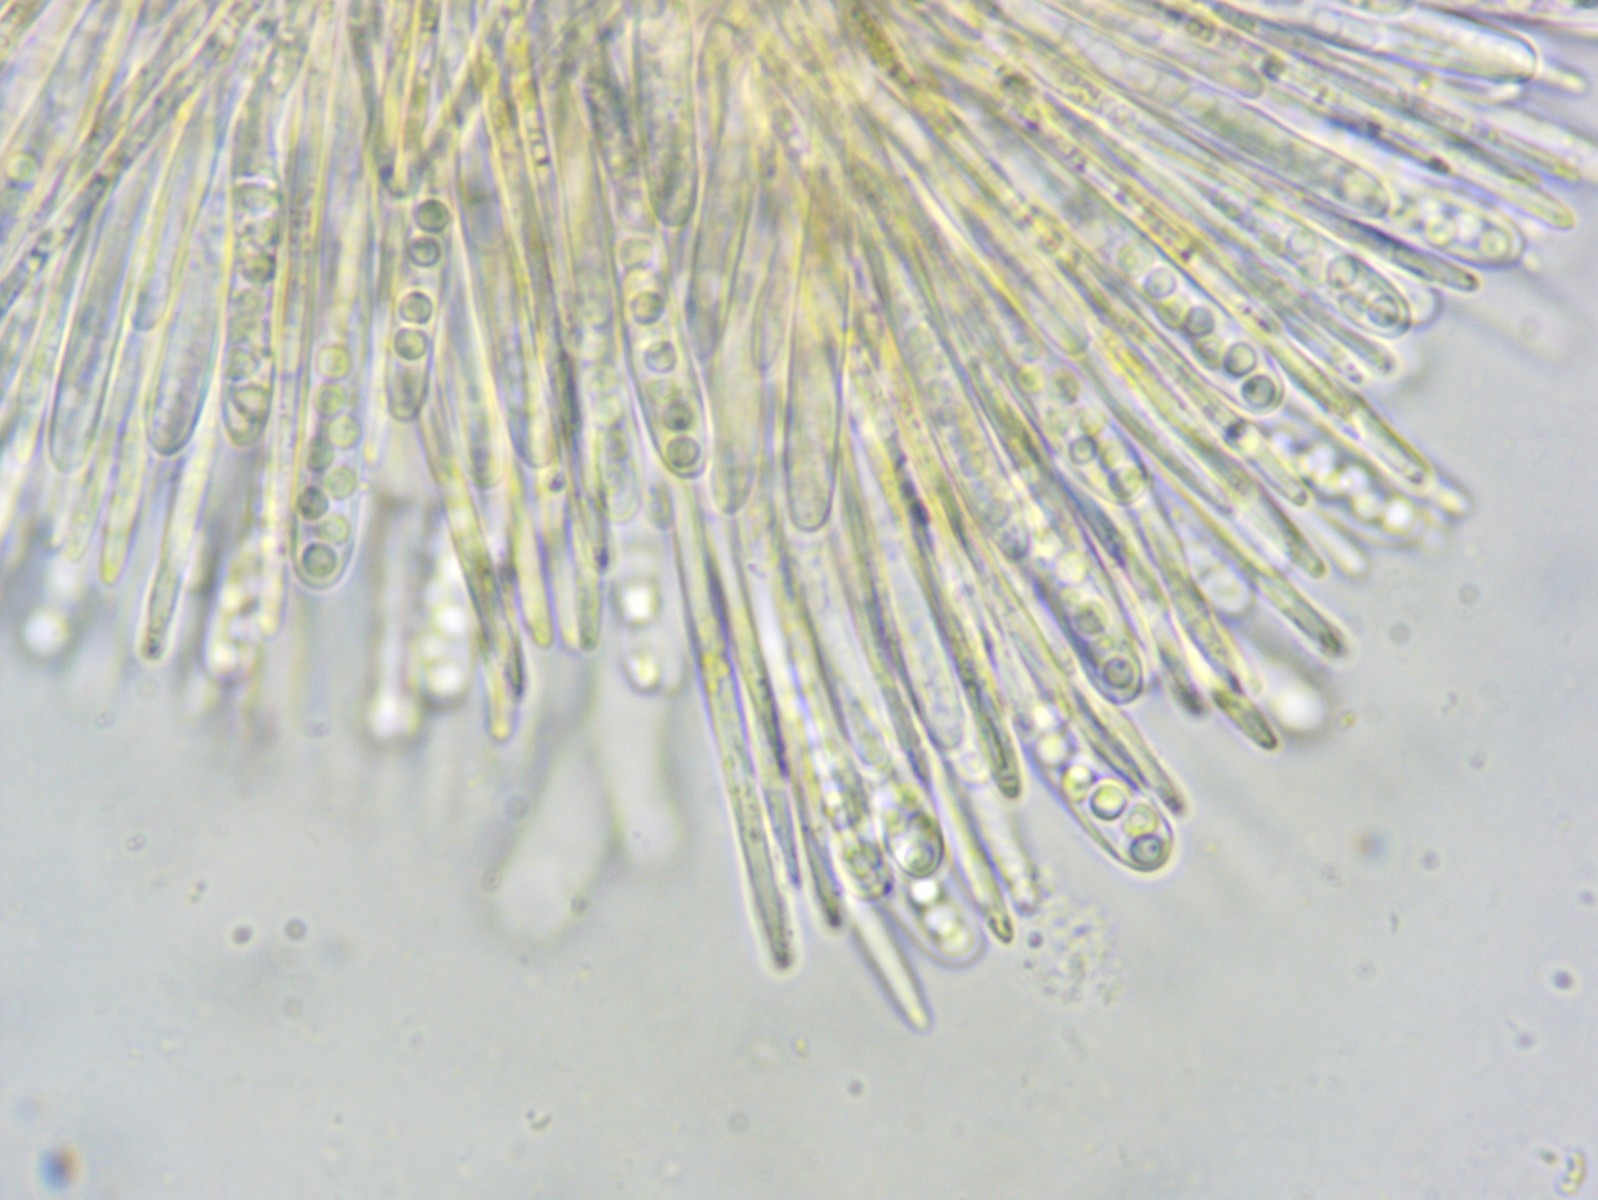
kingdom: Fungi
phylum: Ascomycota
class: Leotiomycetes
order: Helotiales
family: Lachnaceae
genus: Lachnellula
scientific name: Lachnellula calycina
